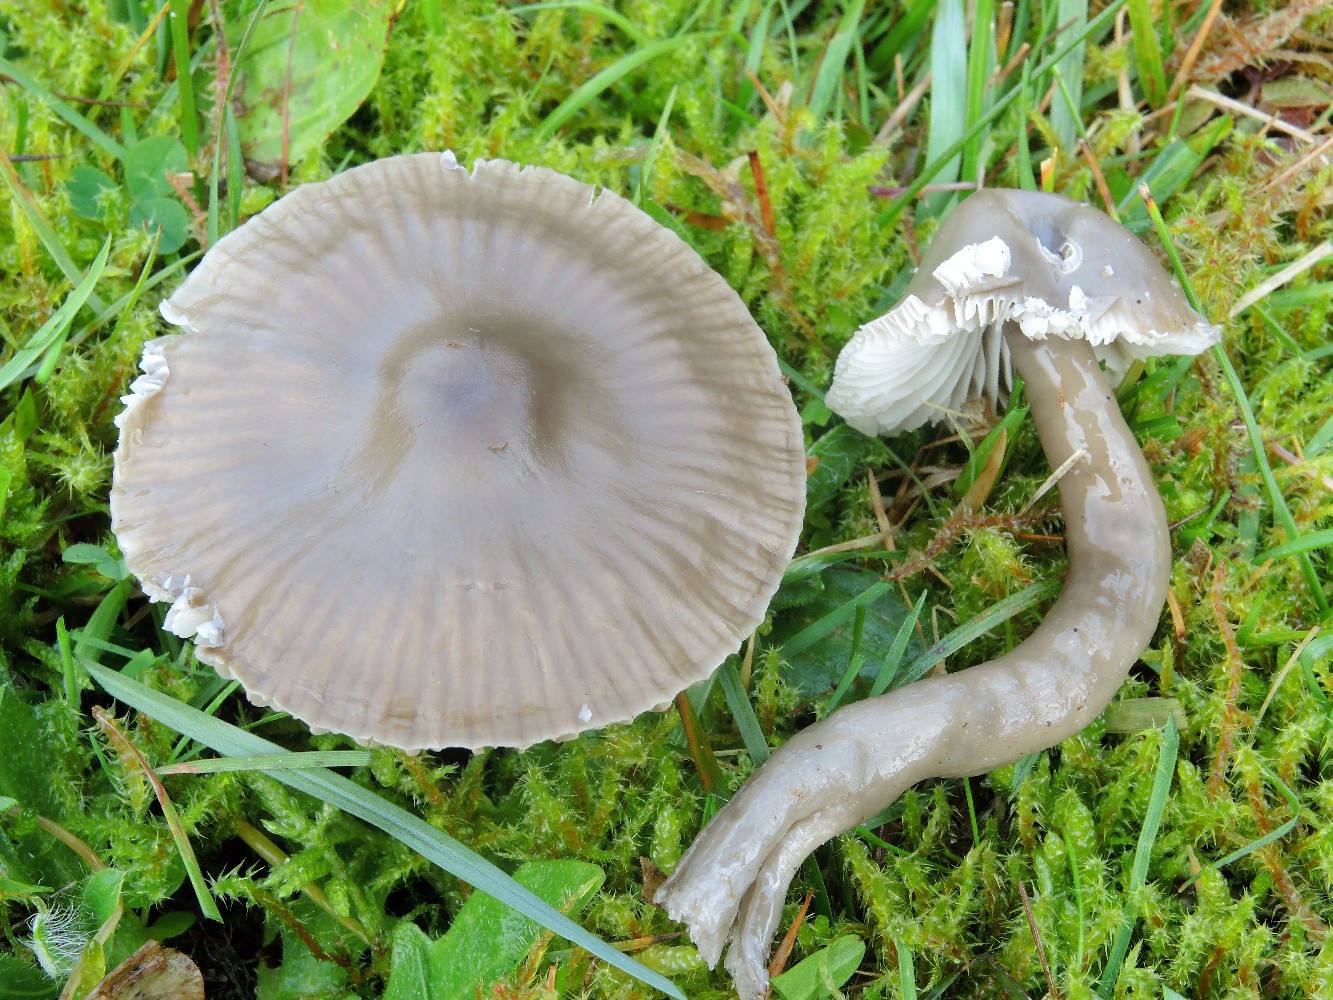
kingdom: Fungi
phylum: Basidiomycota
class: Agaricomycetes
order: Agaricales
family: Hygrophoraceae
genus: Gliophorus
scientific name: Gliophorus irrigatus
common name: slimet vokshat
